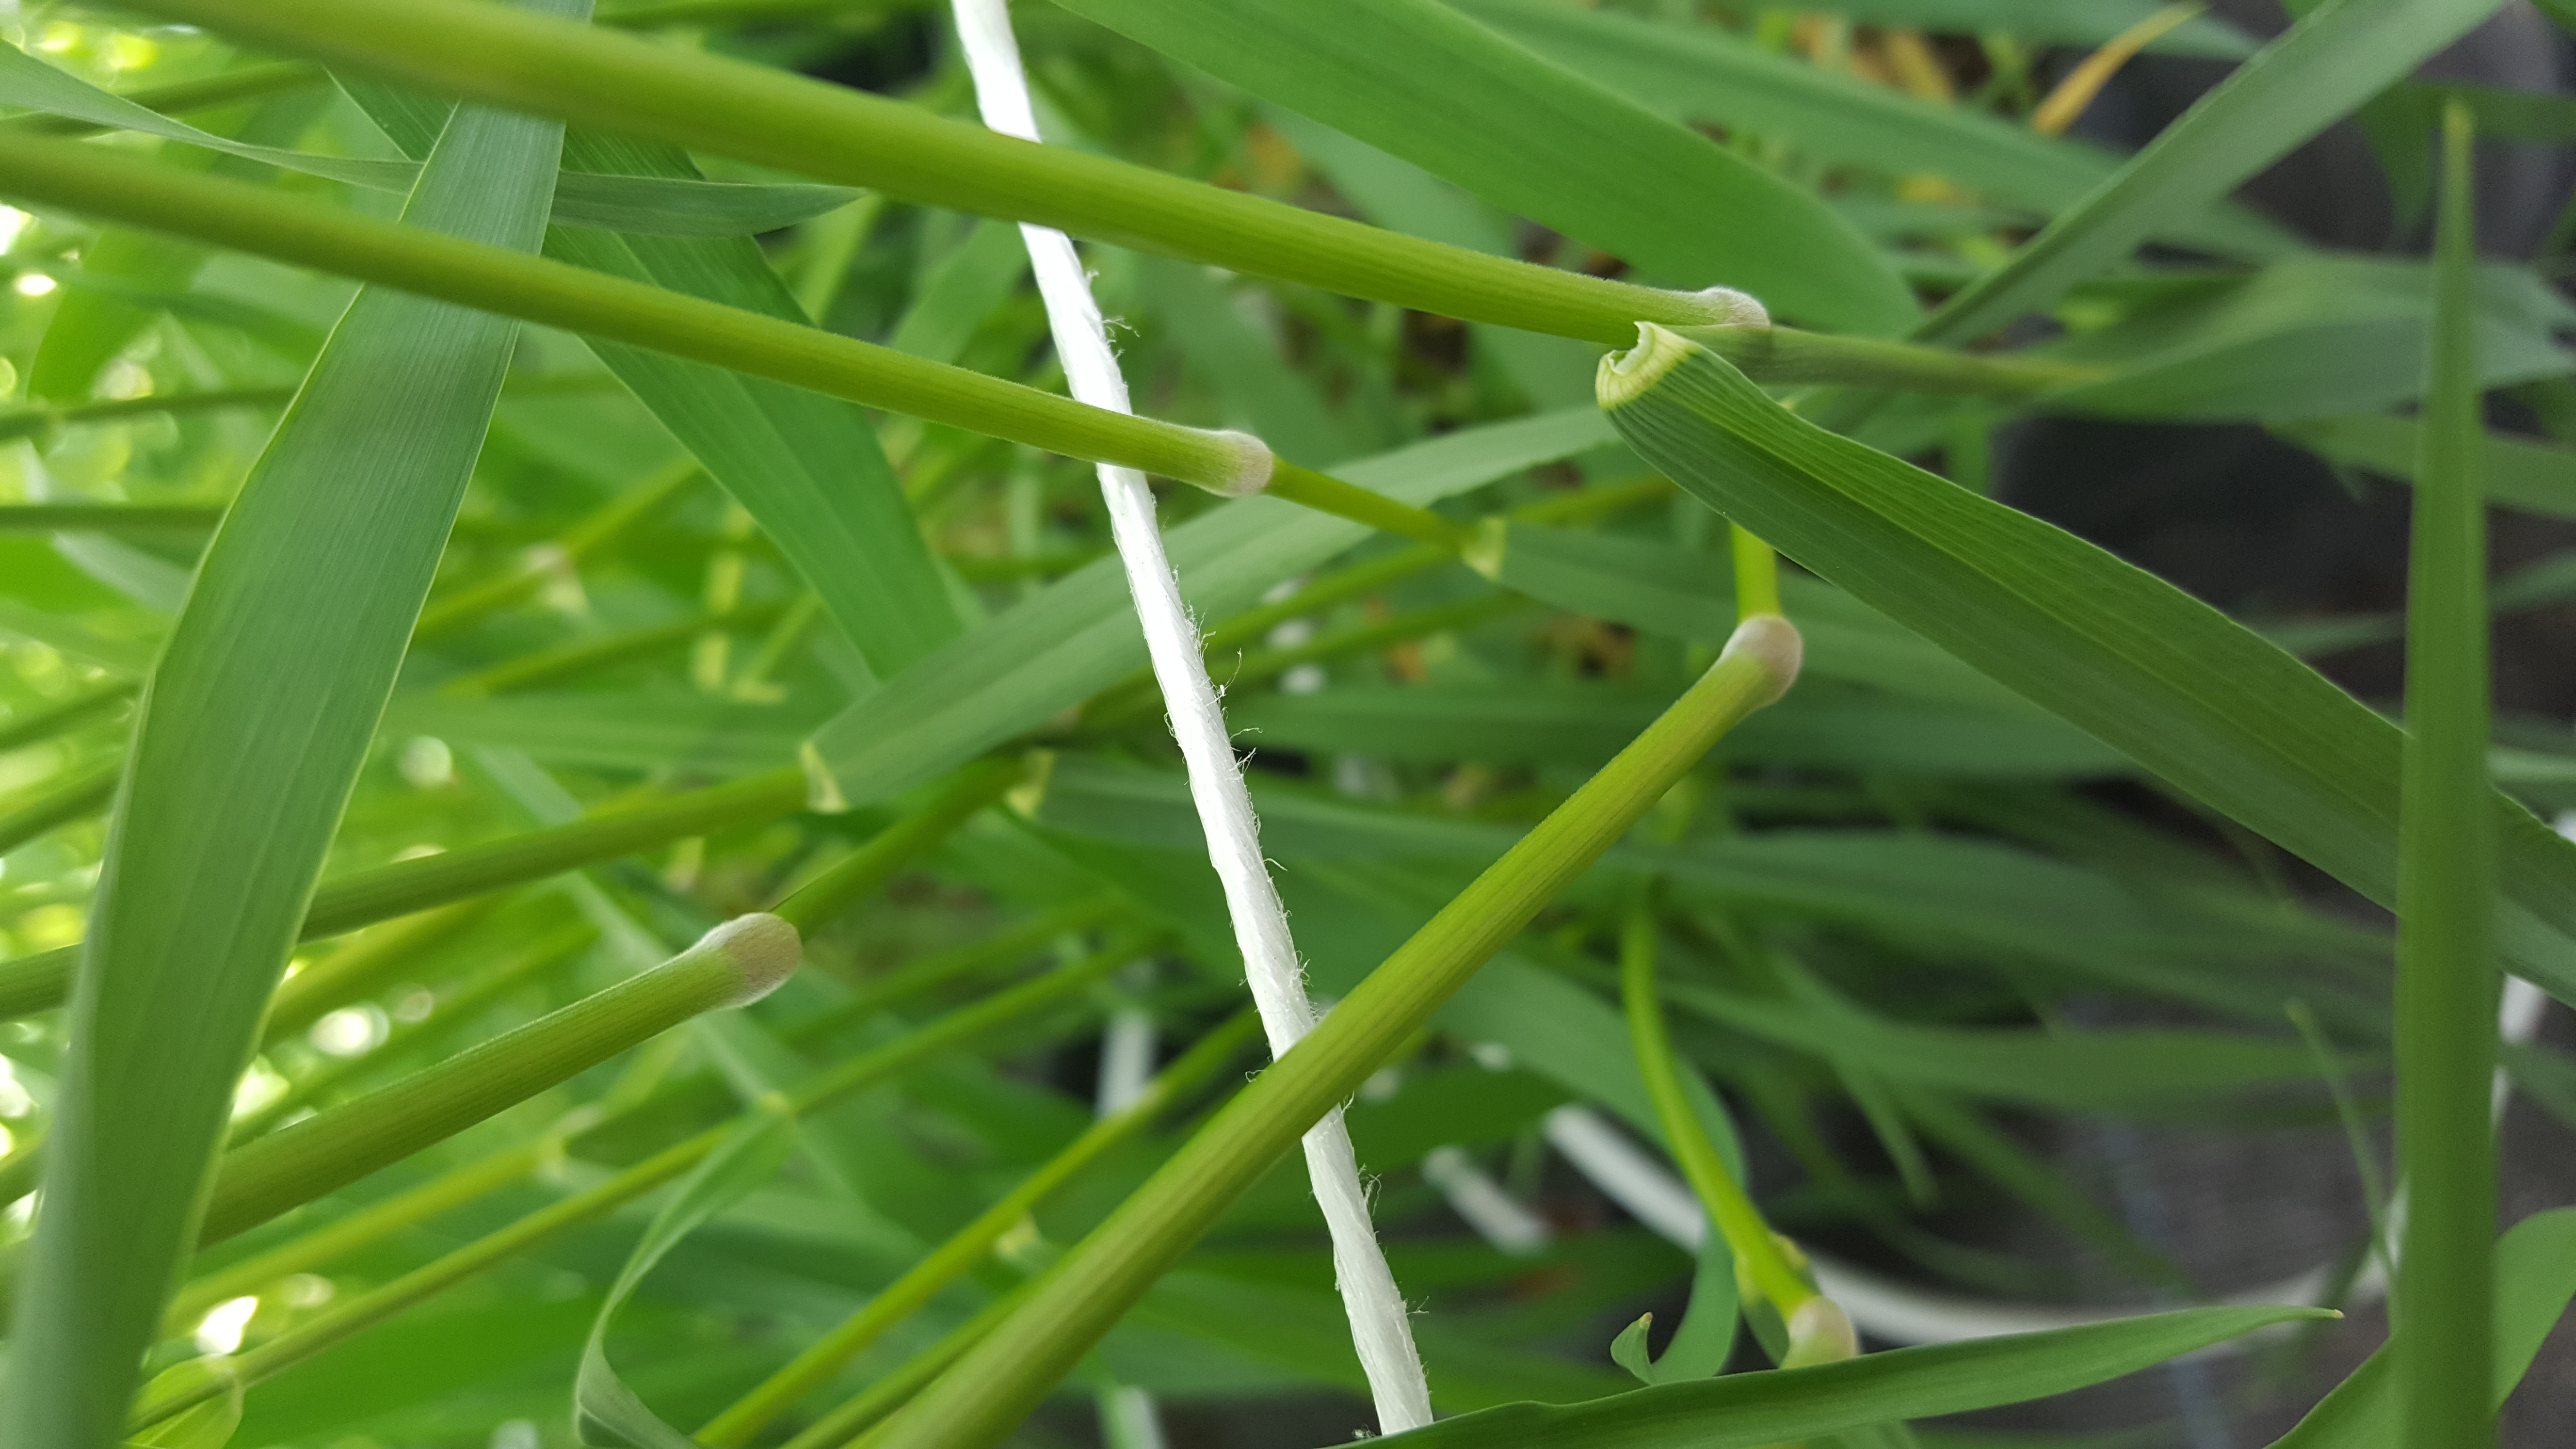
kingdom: Plantae
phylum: Tracheophyta
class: Liliopsida
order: Poales
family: Poaceae
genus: Hordeum
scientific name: Hordeum bogdanii
